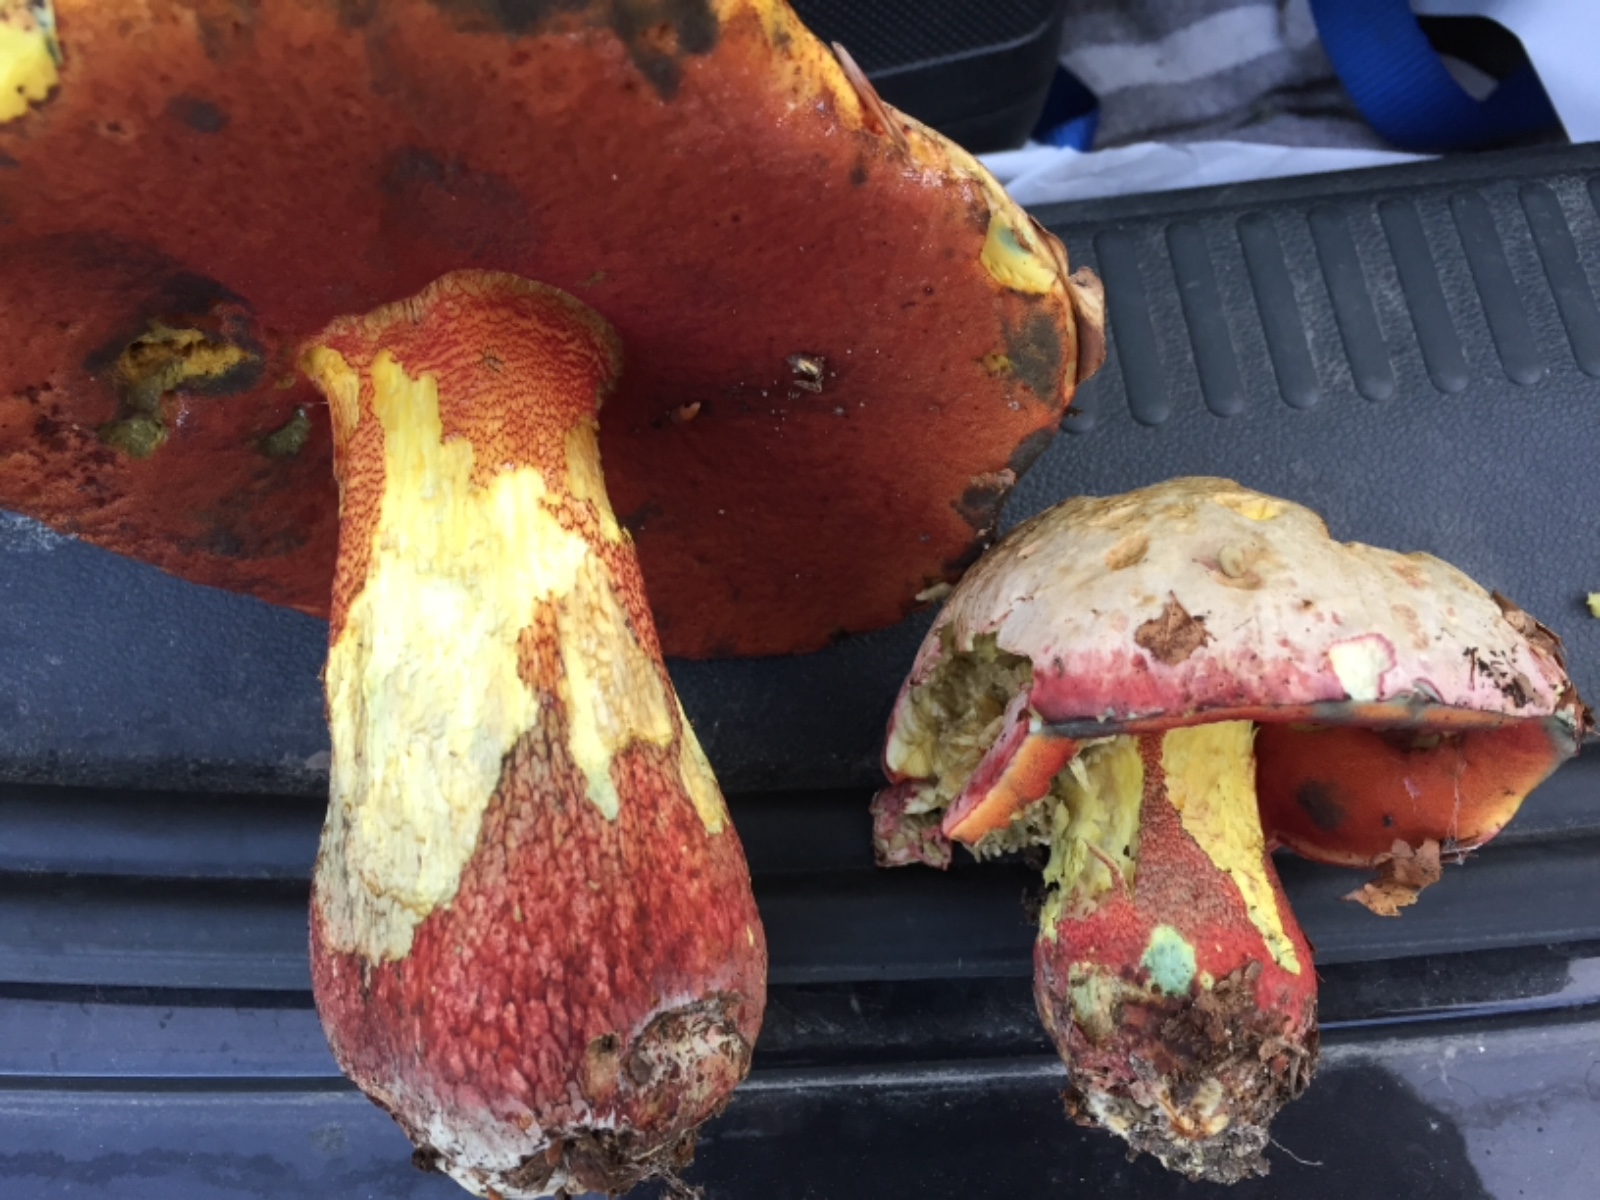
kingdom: Fungi
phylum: Basidiomycota
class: Agaricomycetes
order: Boletales
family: Boletaceae
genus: Rubroboletus
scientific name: Rubroboletus rhodoxanthus
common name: rødgul rørhat
